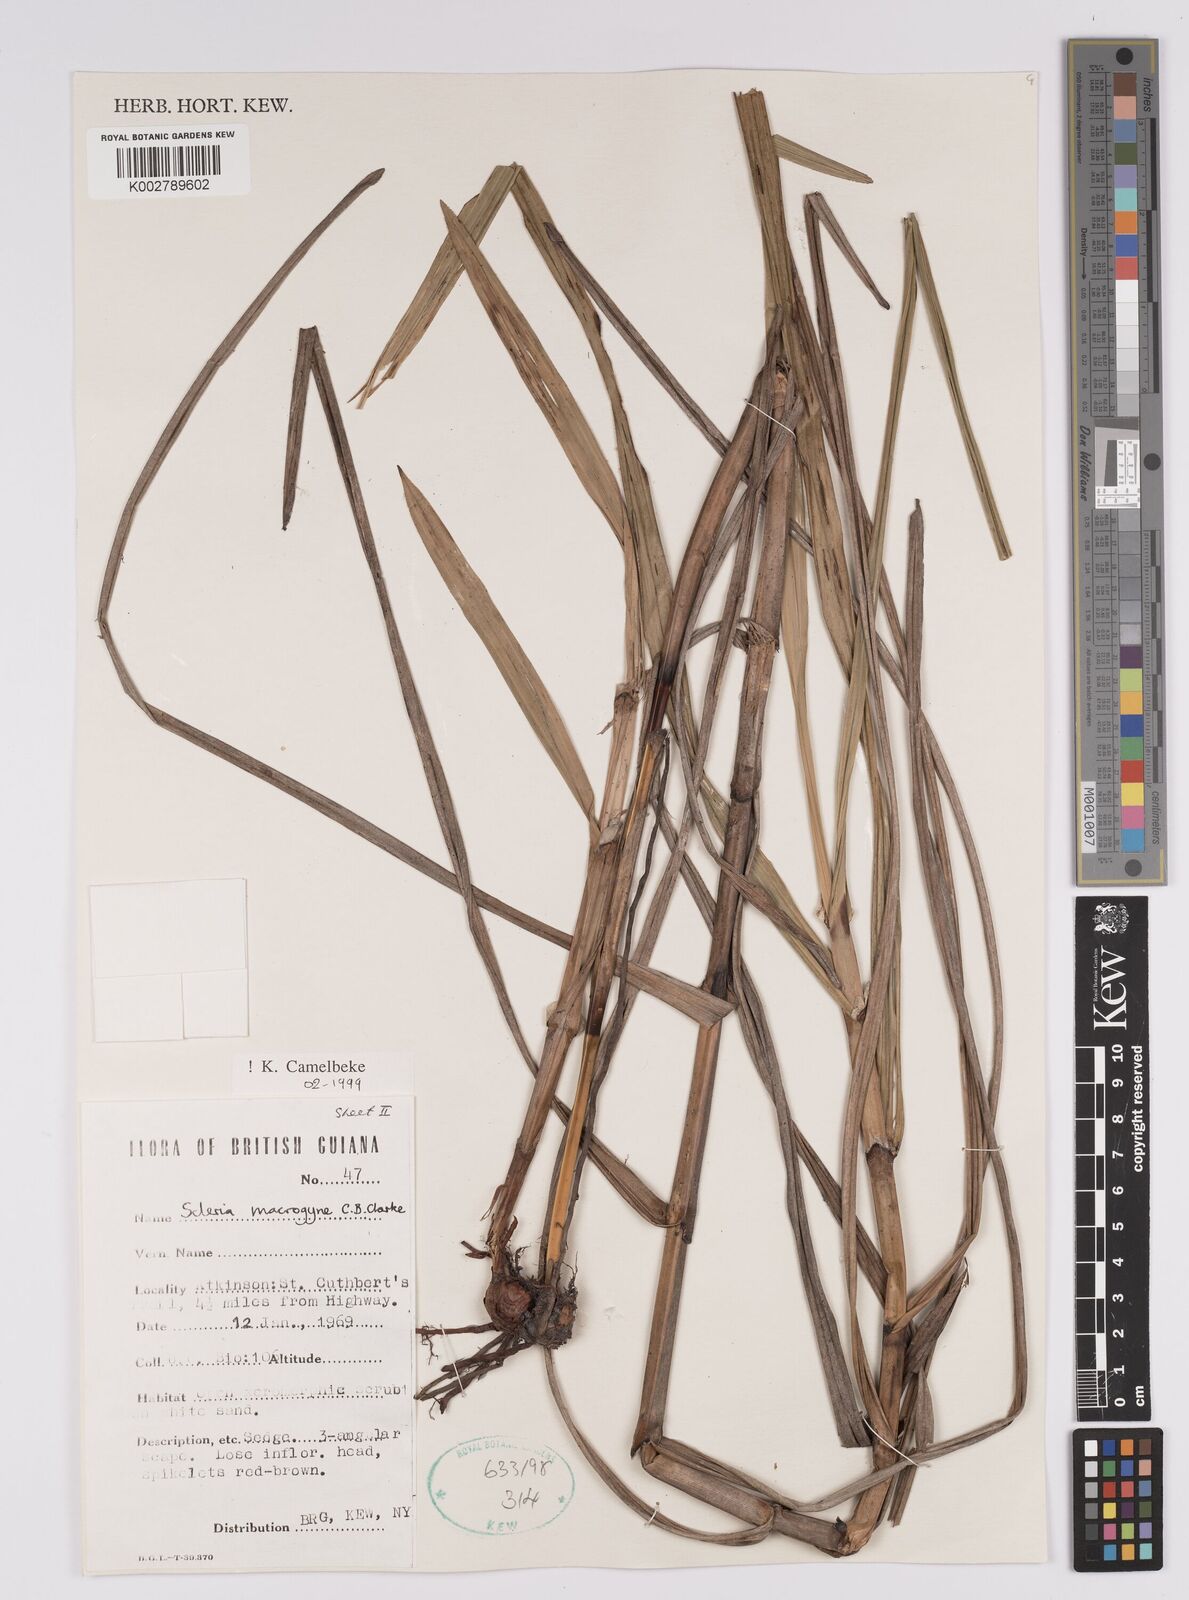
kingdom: Plantae
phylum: Tracheophyta
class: Liliopsida
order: Poales
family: Cyperaceae
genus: Scleria
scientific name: Scleria macrogyne
